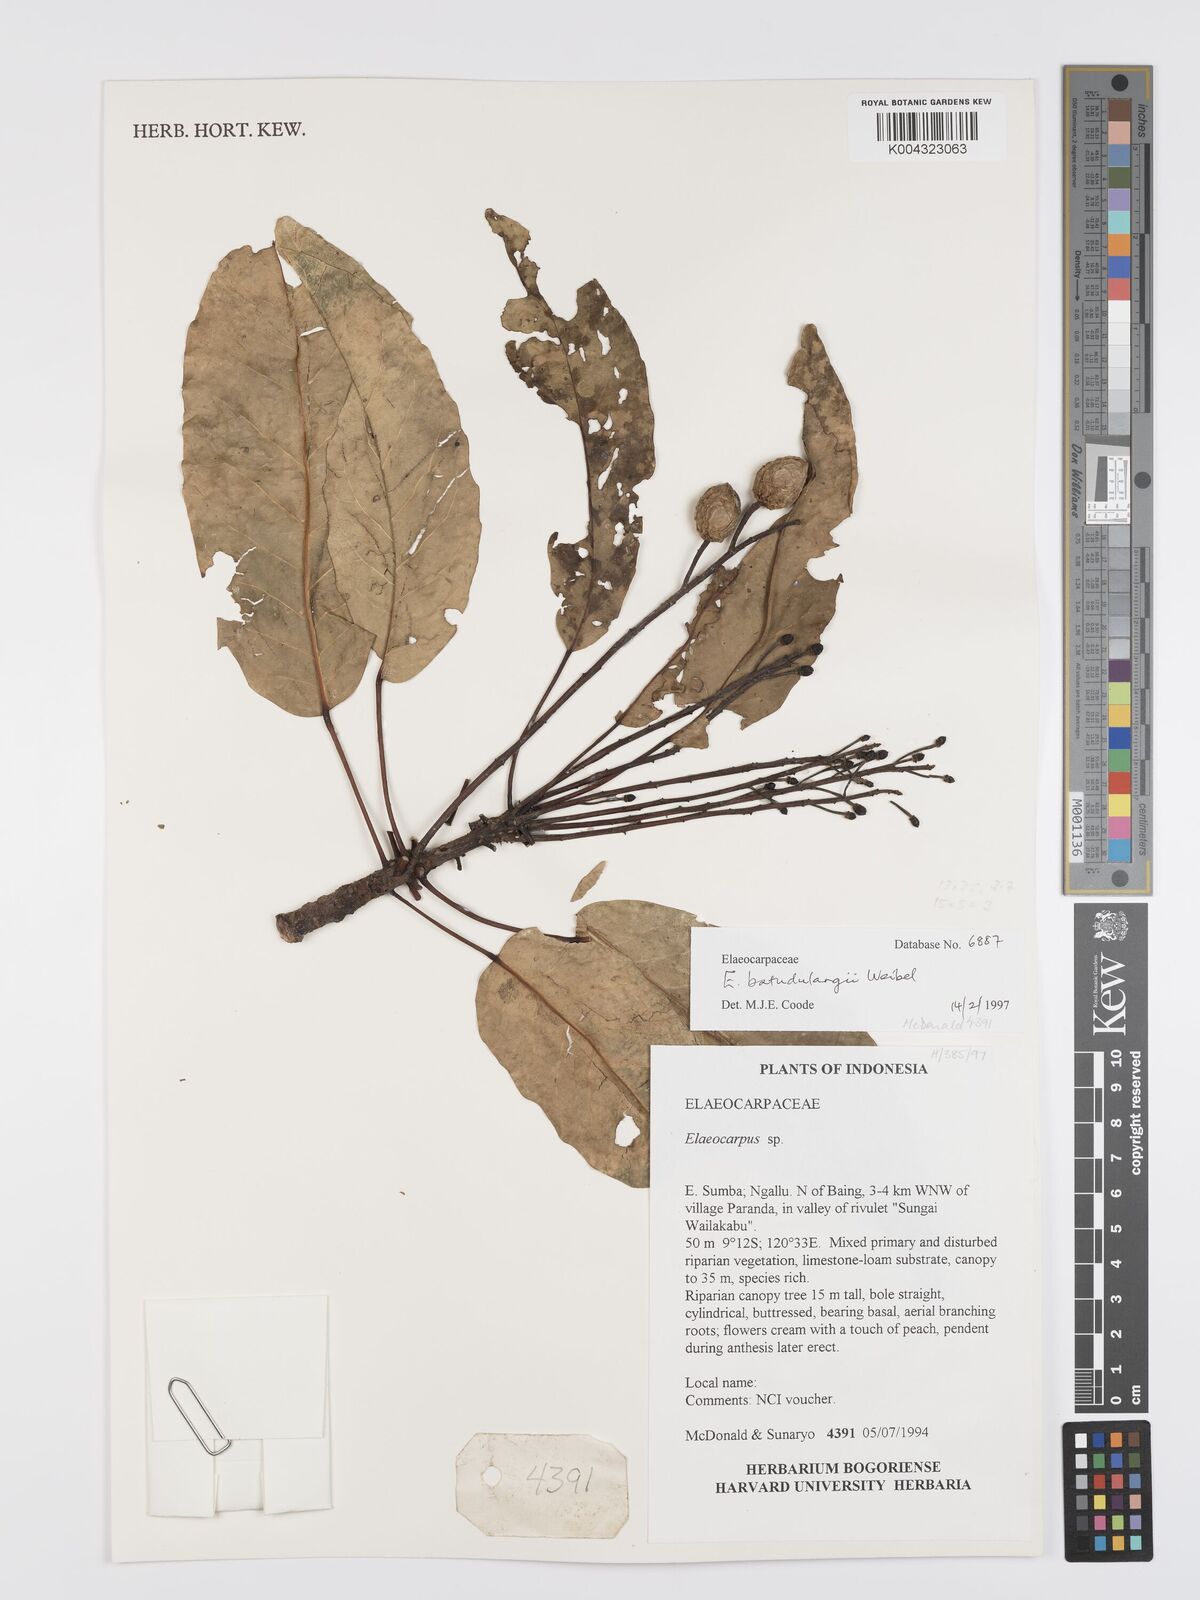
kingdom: Plantae
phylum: Tracheophyta
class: Magnoliopsida
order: Oxalidales
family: Elaeocarpaceae
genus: Elaeocarpus
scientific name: Elaeocarpus
